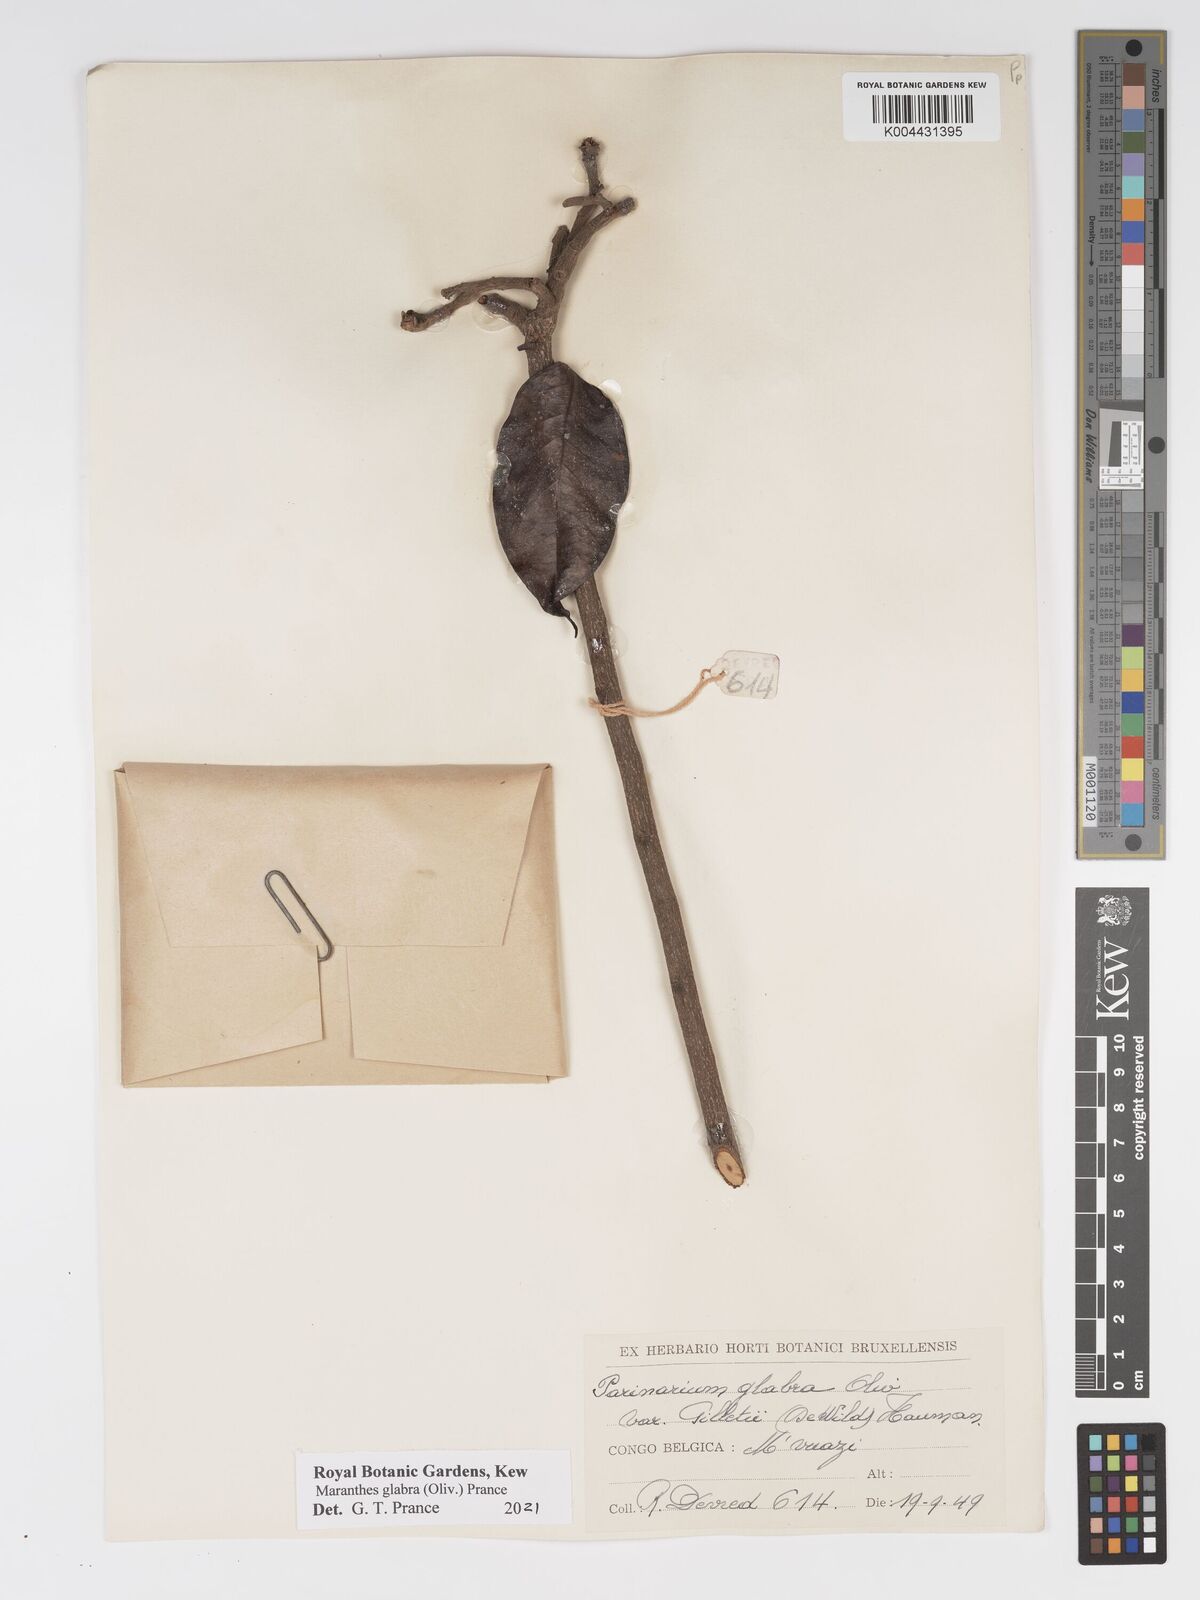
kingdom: Plantae
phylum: Tracheophyta
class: Magnoliopsida
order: Malpighiales
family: Chrysobalanaceae
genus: Maranthes
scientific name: Maranthes glabra
